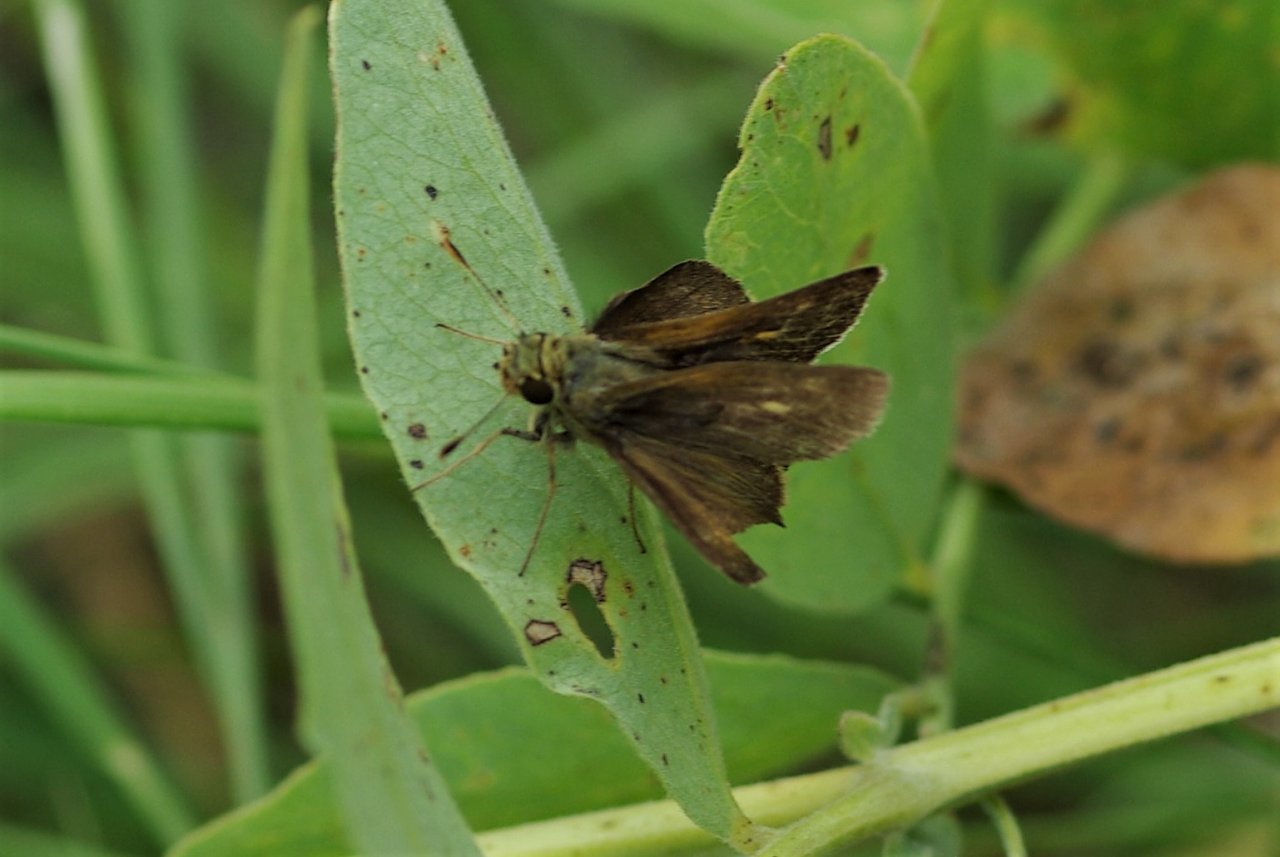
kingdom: Animalia
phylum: Arthropoda
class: Insecta
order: Lepidoptera
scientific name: Lepidoptera
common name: Butterflies
